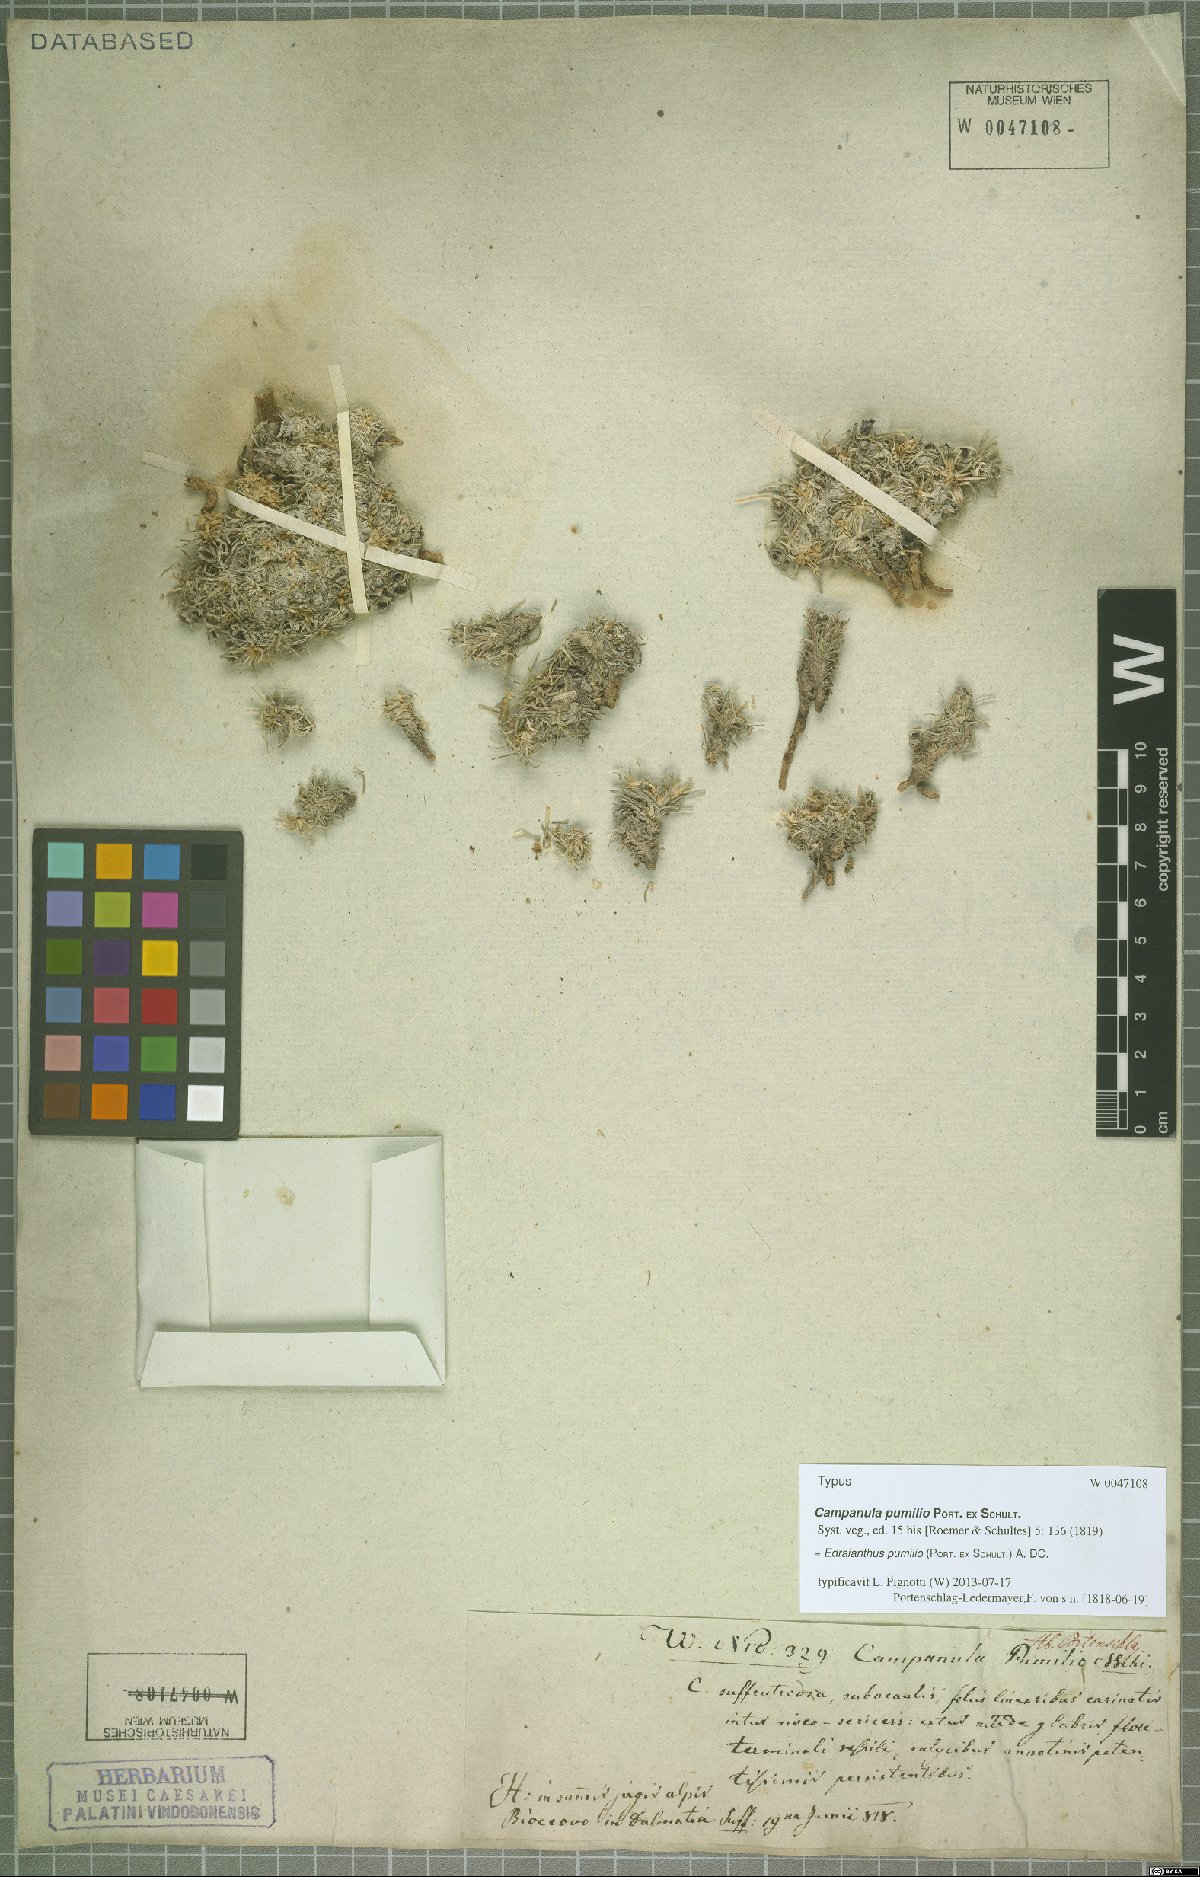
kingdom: Plantae
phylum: Tracheophyta
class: Magnoliopsida
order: Asterales
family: Campanulaceae
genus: Edraianthus
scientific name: Edraianthus pumilio
